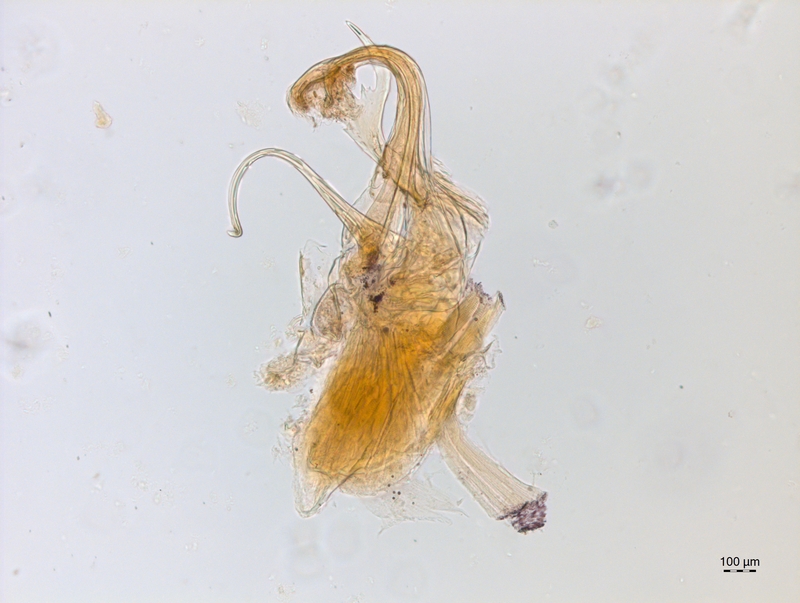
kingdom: Animalia
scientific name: Animalia
